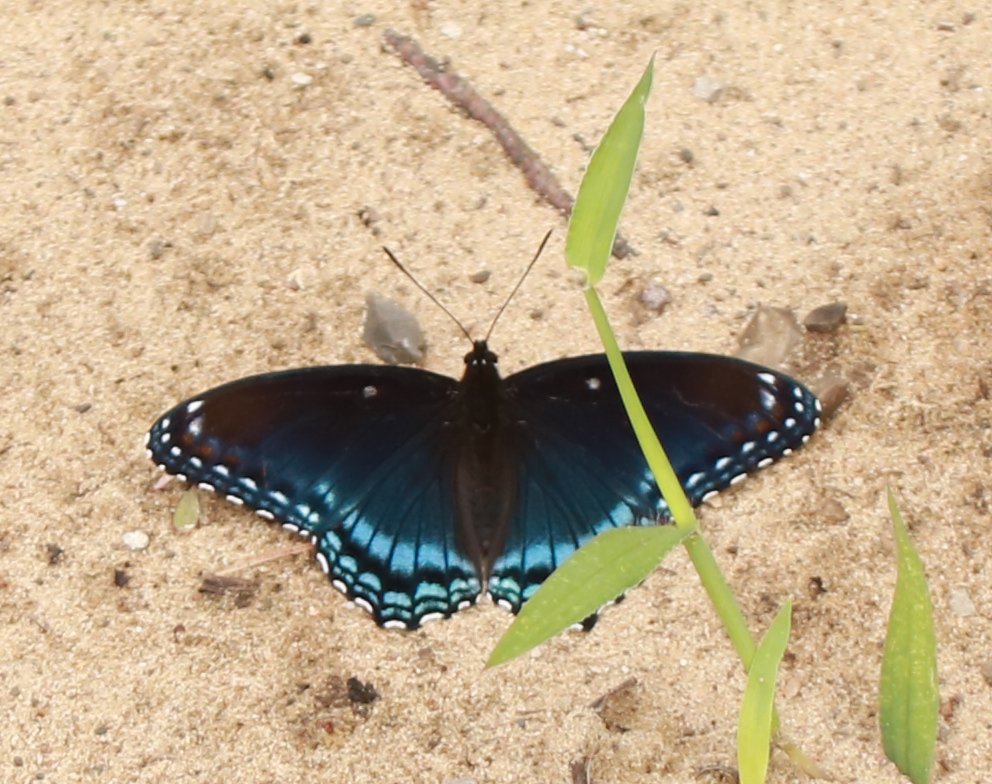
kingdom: Animalia
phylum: Arthropoda
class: Insecta
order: Lepidoptera
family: Nymphalidae
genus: Limenitis
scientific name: Limenitis astyanax
